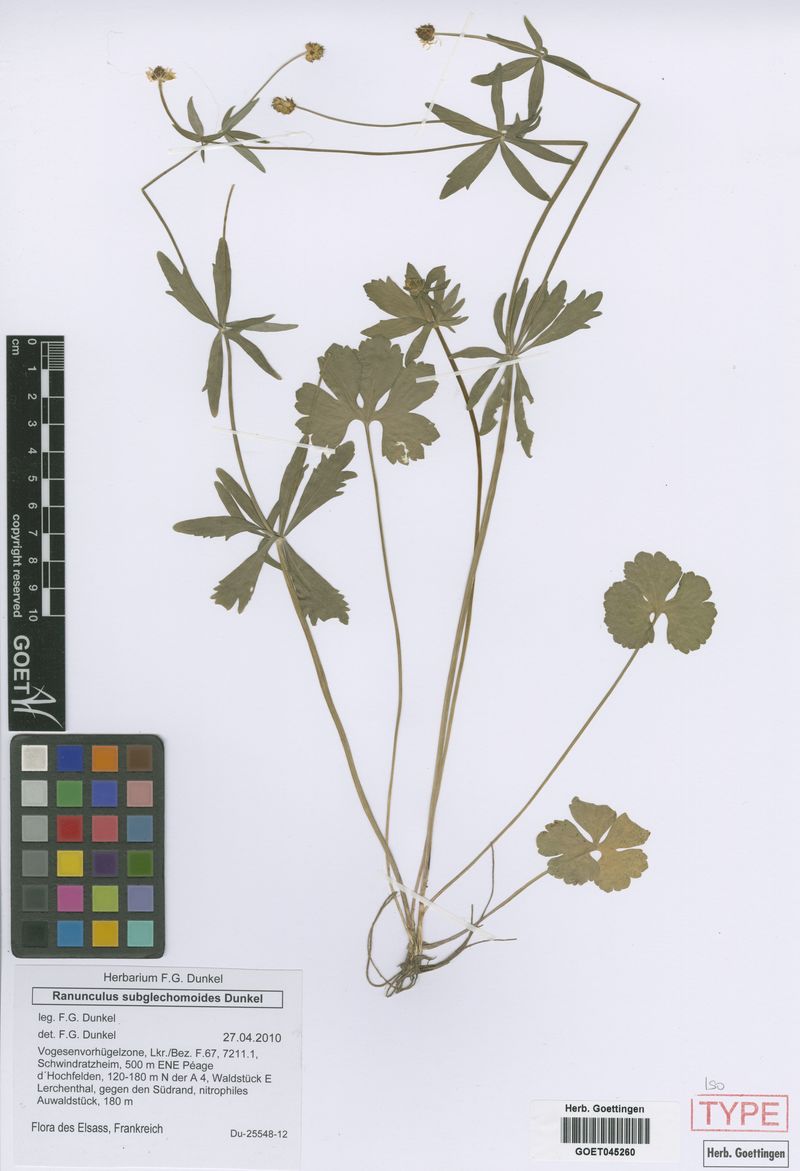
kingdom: Plantae
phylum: Tracheophyta
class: Magnoliopsida
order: Ranunculales
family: Ranunculaceae
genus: Ranunculus
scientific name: Ranunculus subglechomoides
